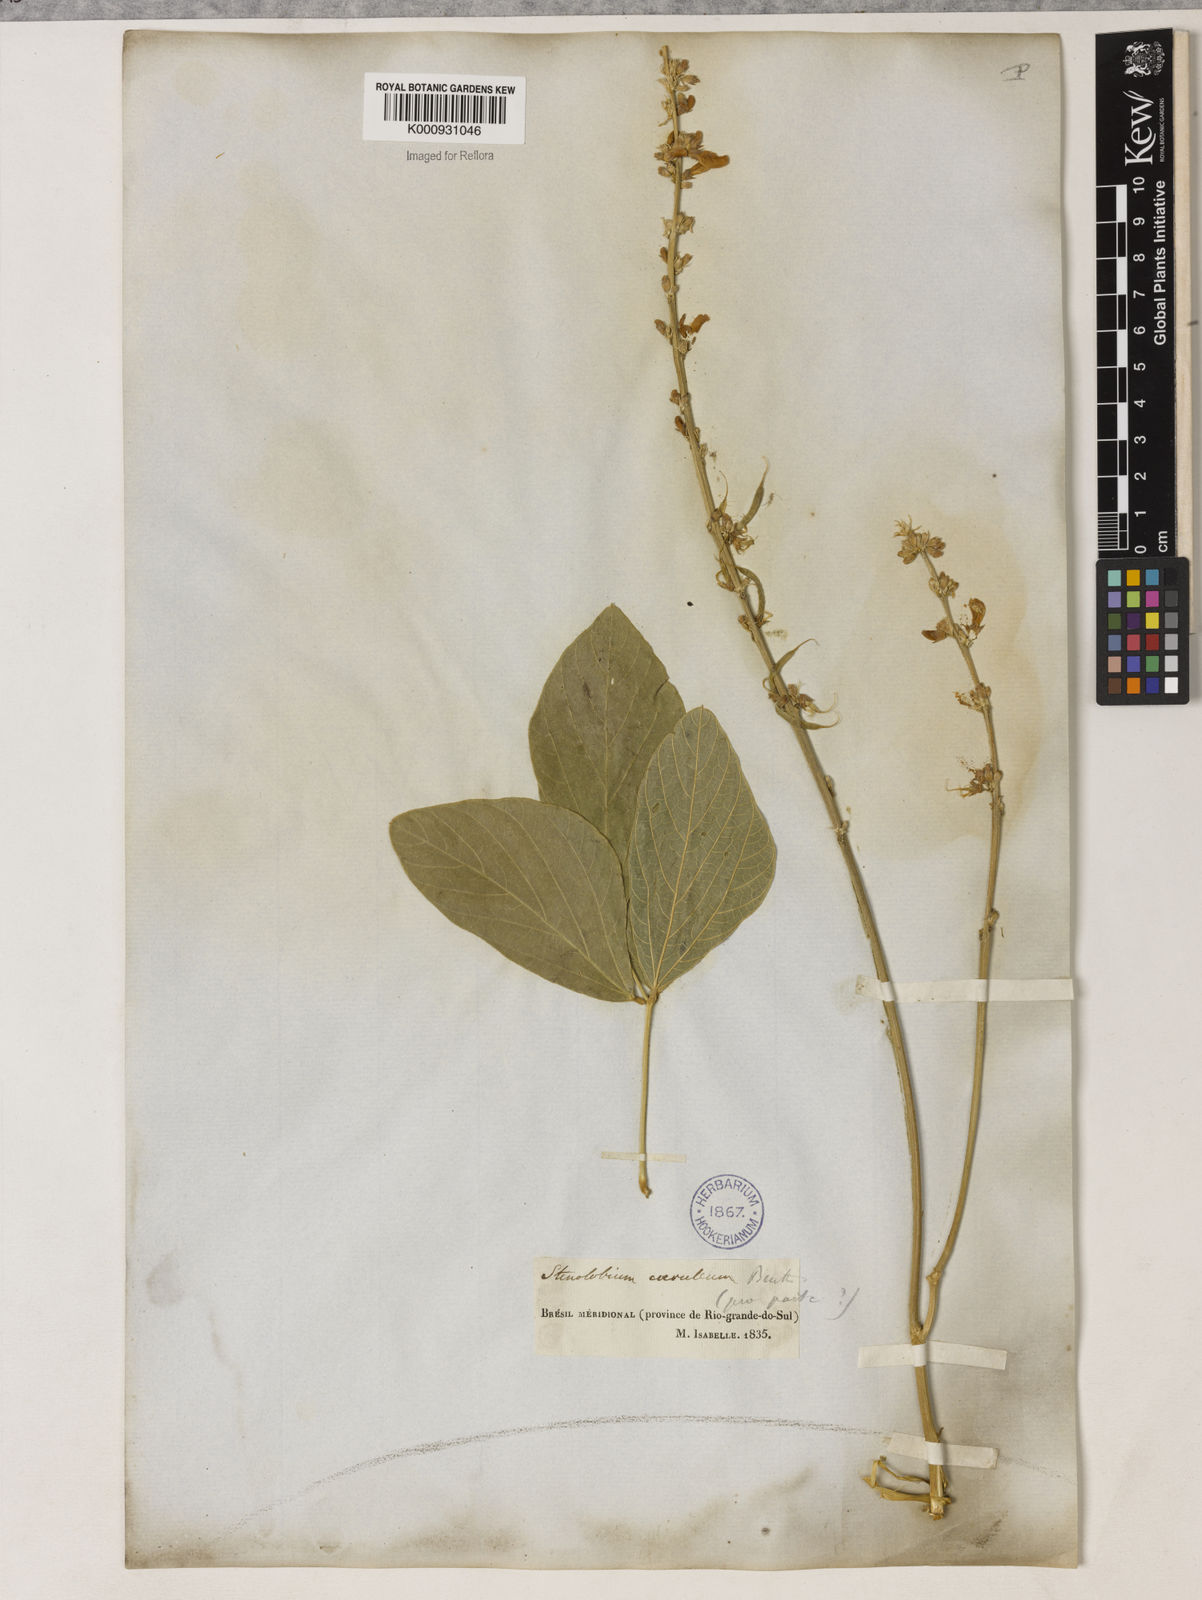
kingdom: Plantae
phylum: Tracheophyta
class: Magnoliopsida
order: Fabales
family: Fabaceae
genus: Calopogonium
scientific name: Calopogonium caeruleum
